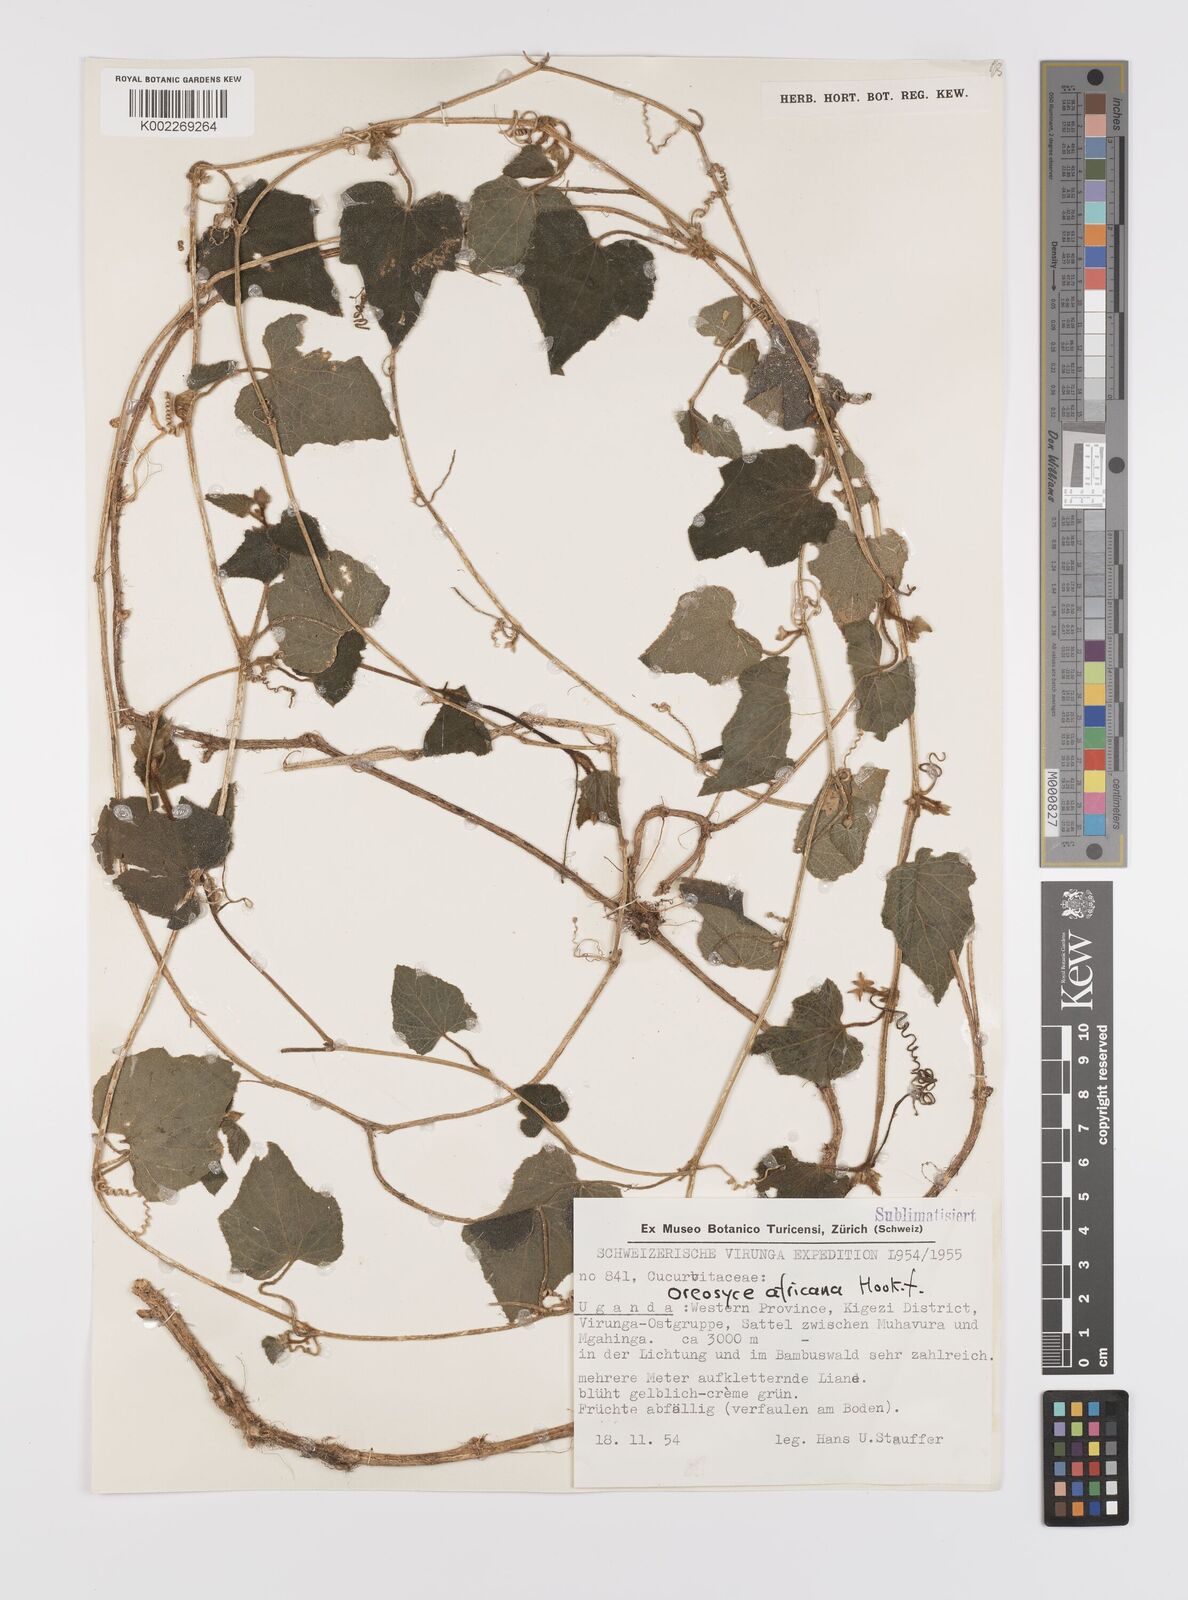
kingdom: Plantae
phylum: Tracheophyta
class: Magnoliopsida
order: Cucurbitales
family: Cucurbitaceae
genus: Cucumis
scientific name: Cucumis oreosyce
